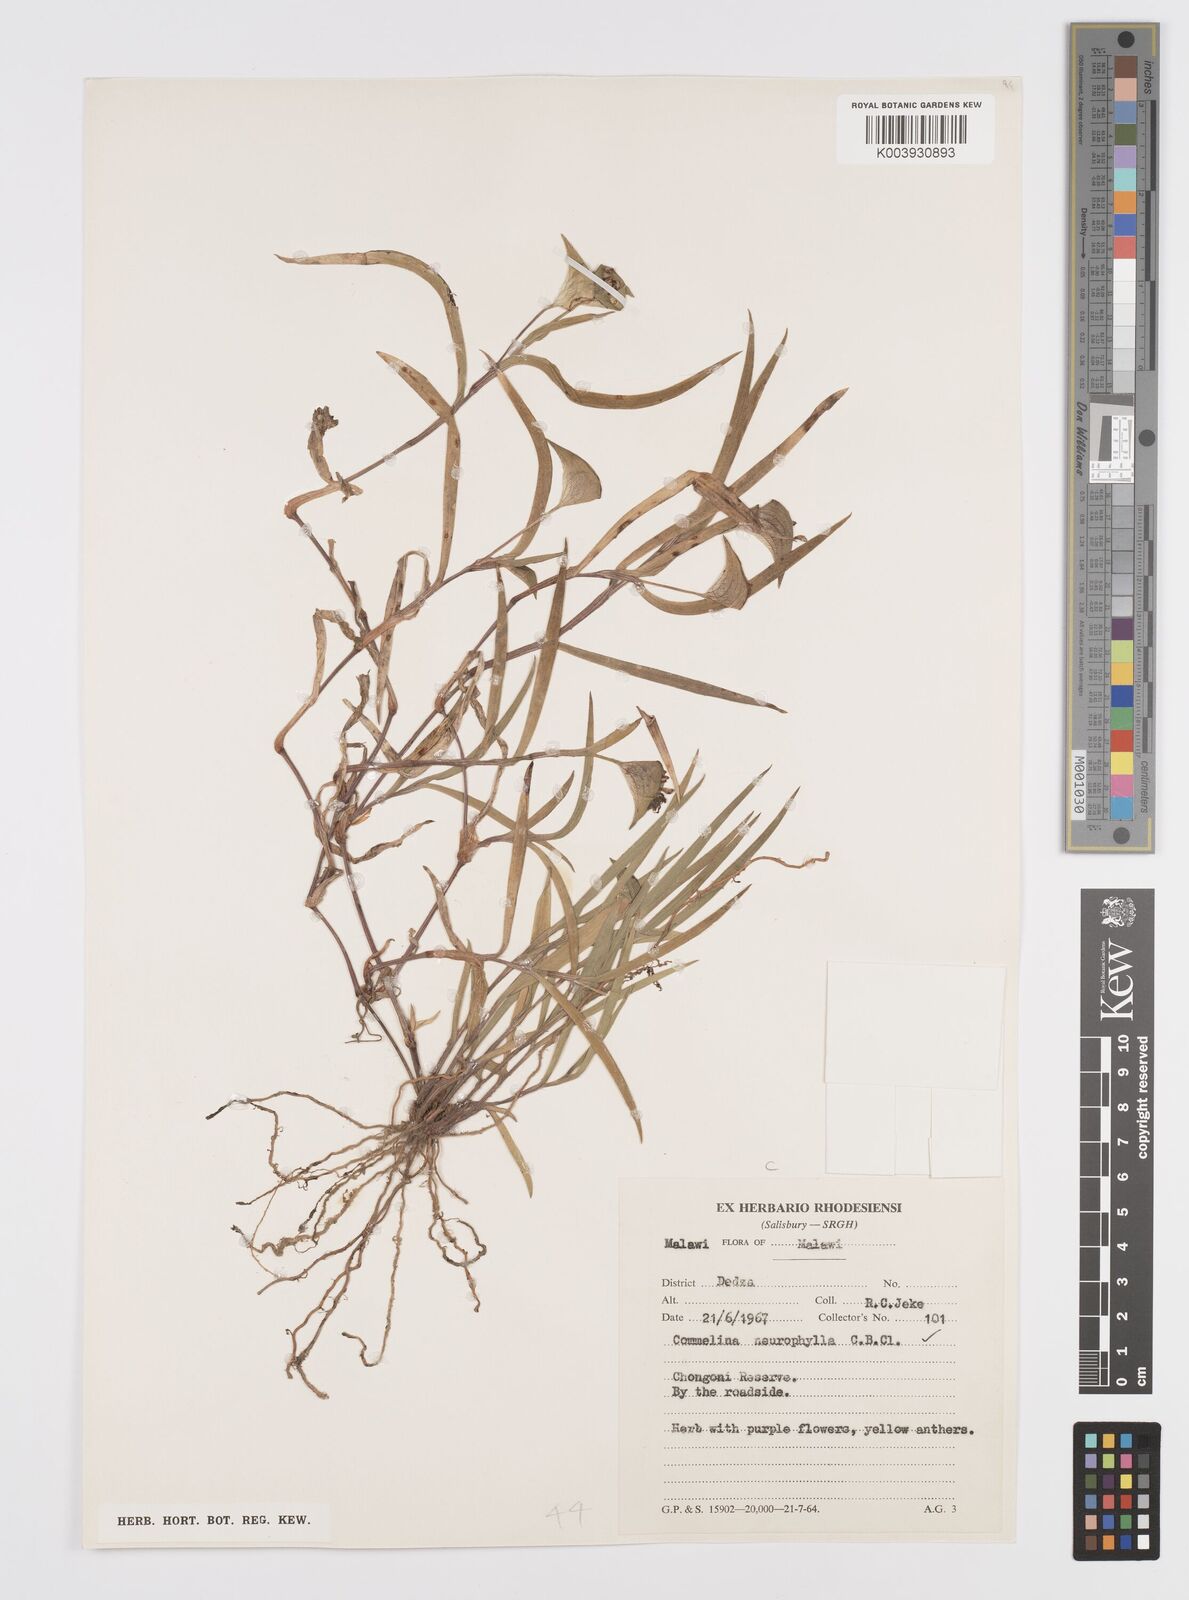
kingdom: Plantae
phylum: Tracheophyta
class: Liliopsida
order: Commelinales
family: Commelinaceae
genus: Commelina
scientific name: Commelina neurophylla
